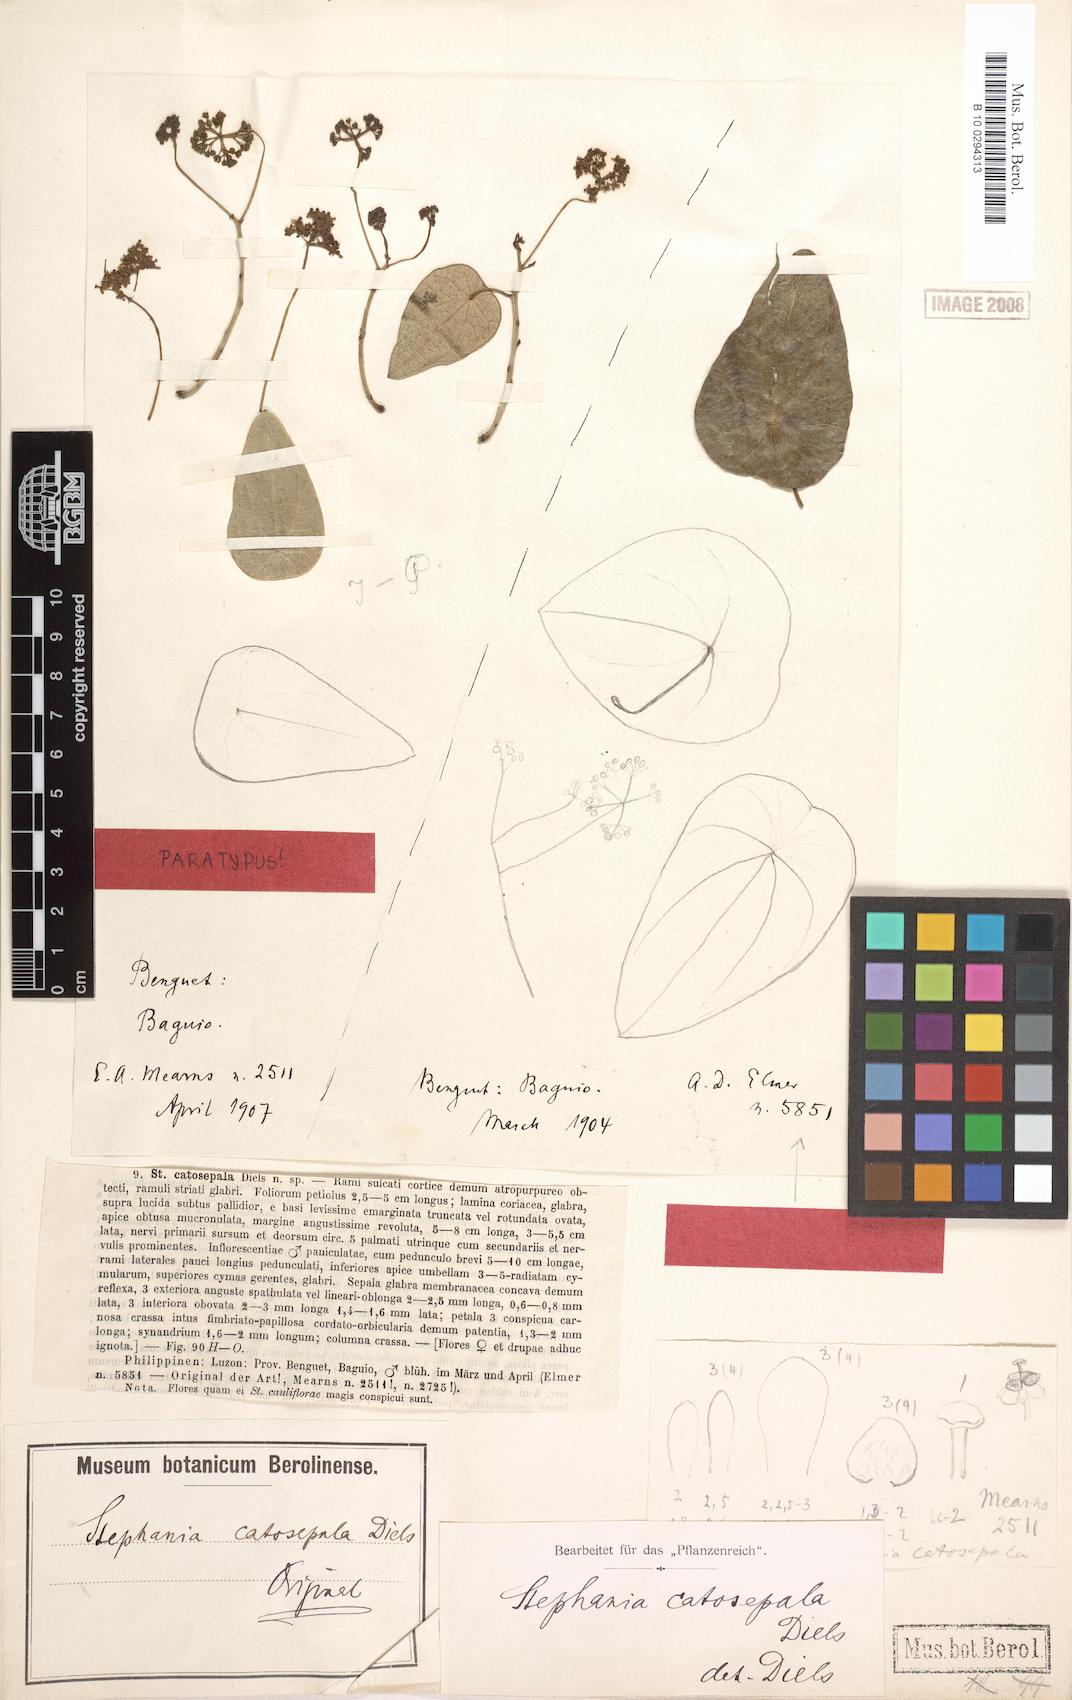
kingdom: Plantae
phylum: Tracheophyta
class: Magnoliopsida
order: Ranunculales
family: Menispermaceae
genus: Stephania
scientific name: Stephania corymbosa
